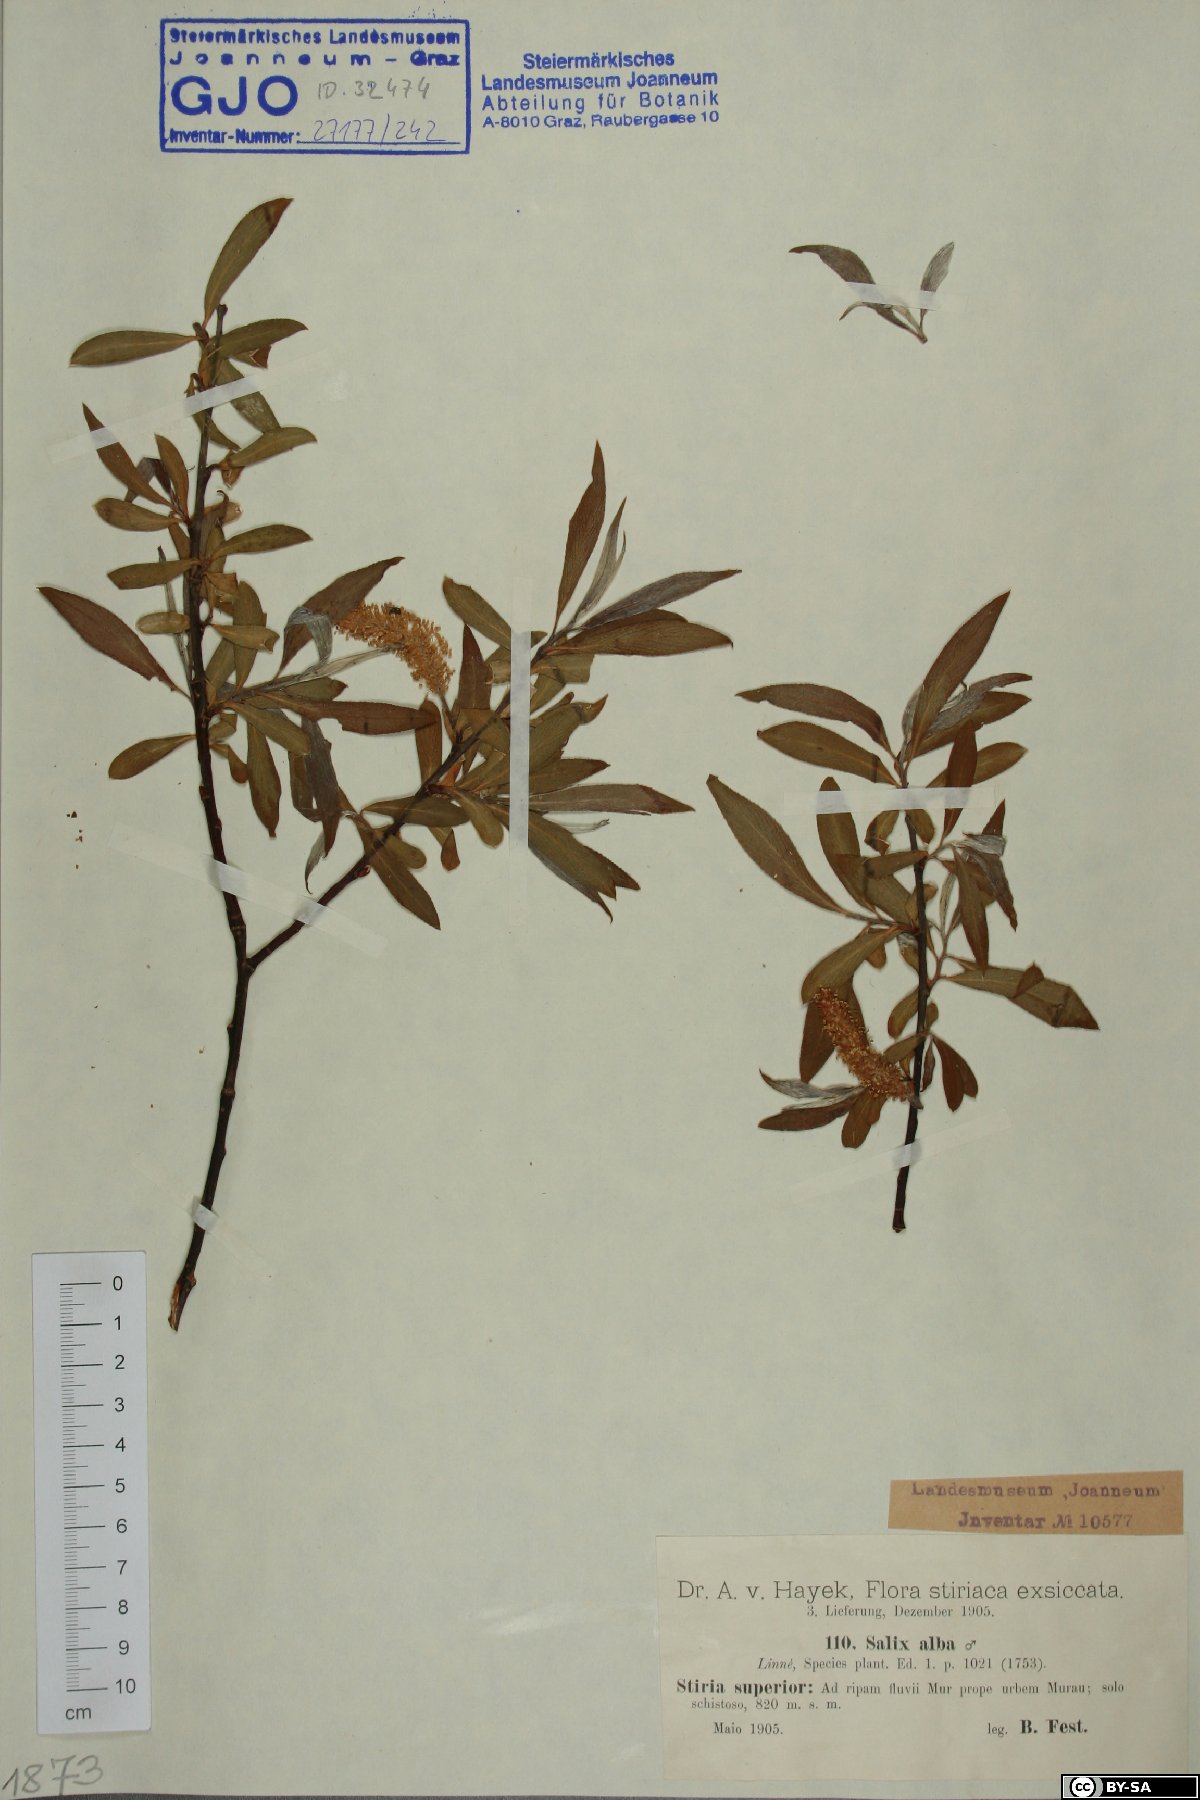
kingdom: Plantae
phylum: Tracheophyta
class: Magnoliopsida
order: Malpighiales
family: Salicaceae
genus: Salix
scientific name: Salix alba
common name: White willow
